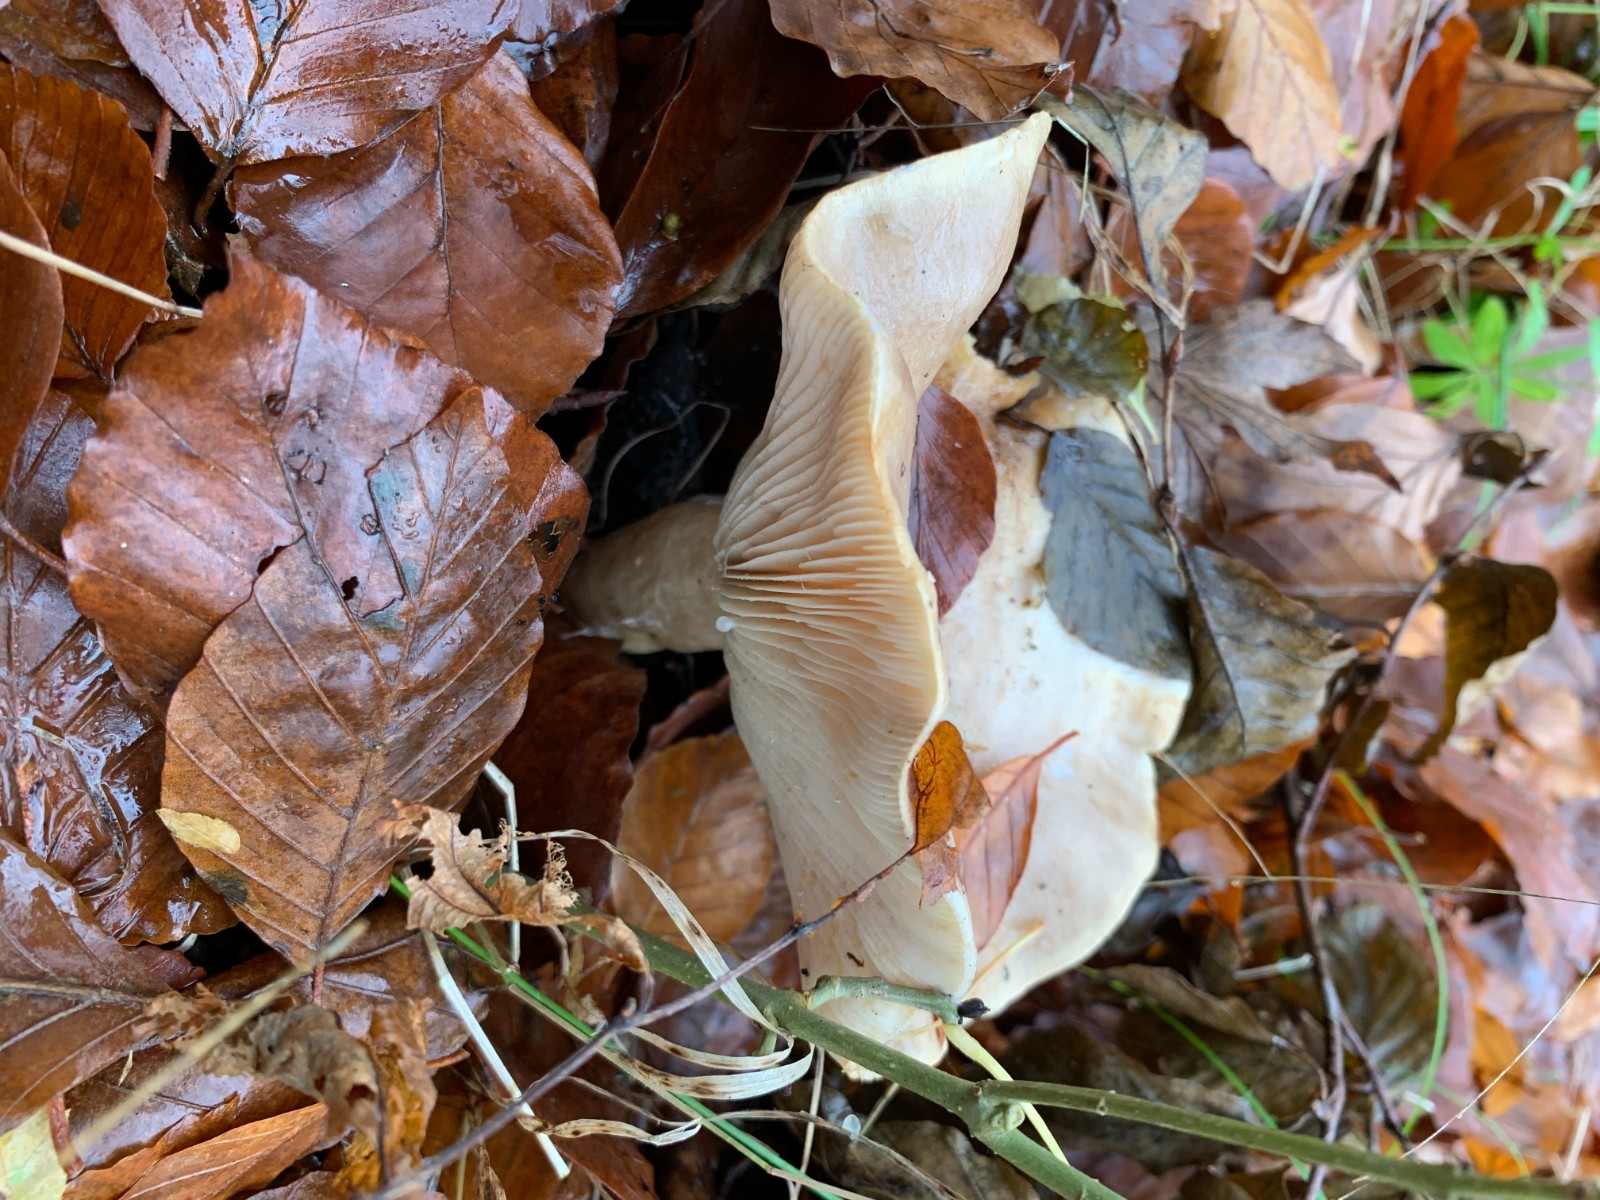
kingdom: Fungi
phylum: Basidiomycota
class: Agaricomycetes
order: Russulales
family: Russulaceae
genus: Lactarius
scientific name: Lactarius
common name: mælkehat
